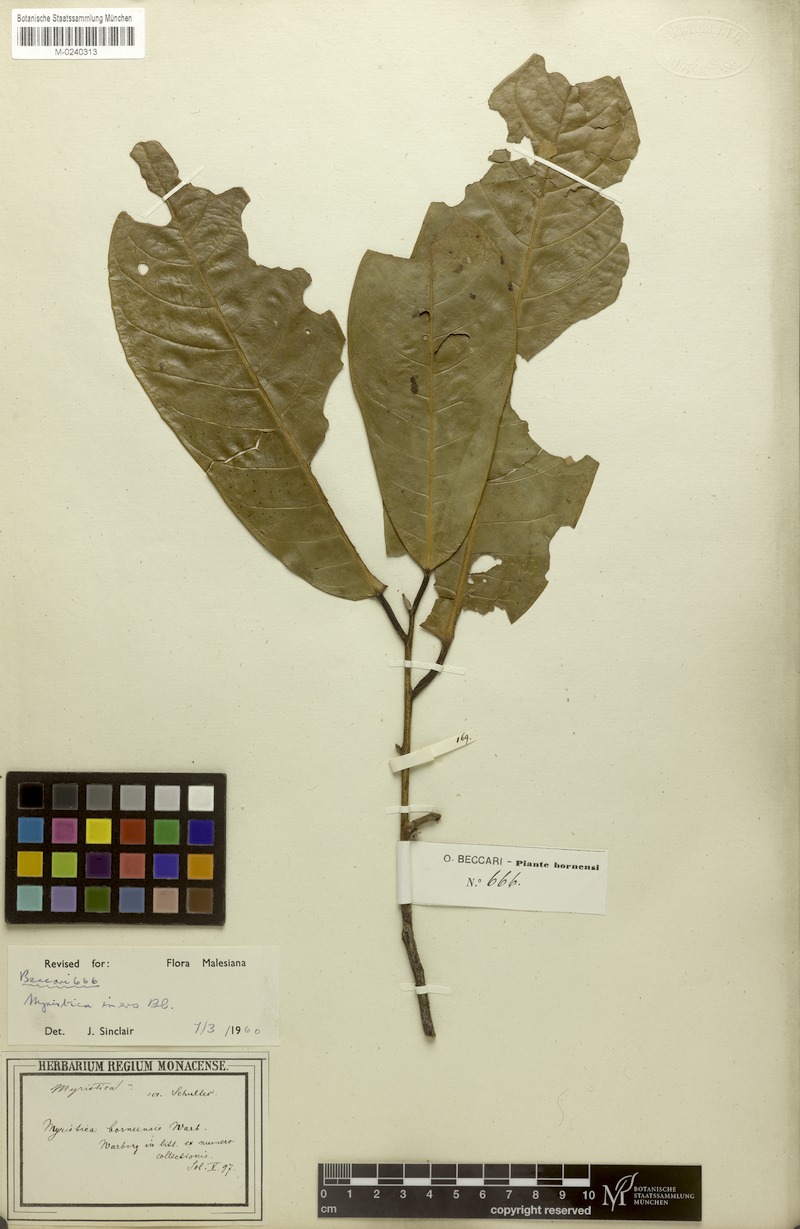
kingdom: Plantae
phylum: Tracheophyta
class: Magnoliopsida
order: Magnoliales
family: Myristicaceae
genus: Myristica
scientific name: Myristica iners
